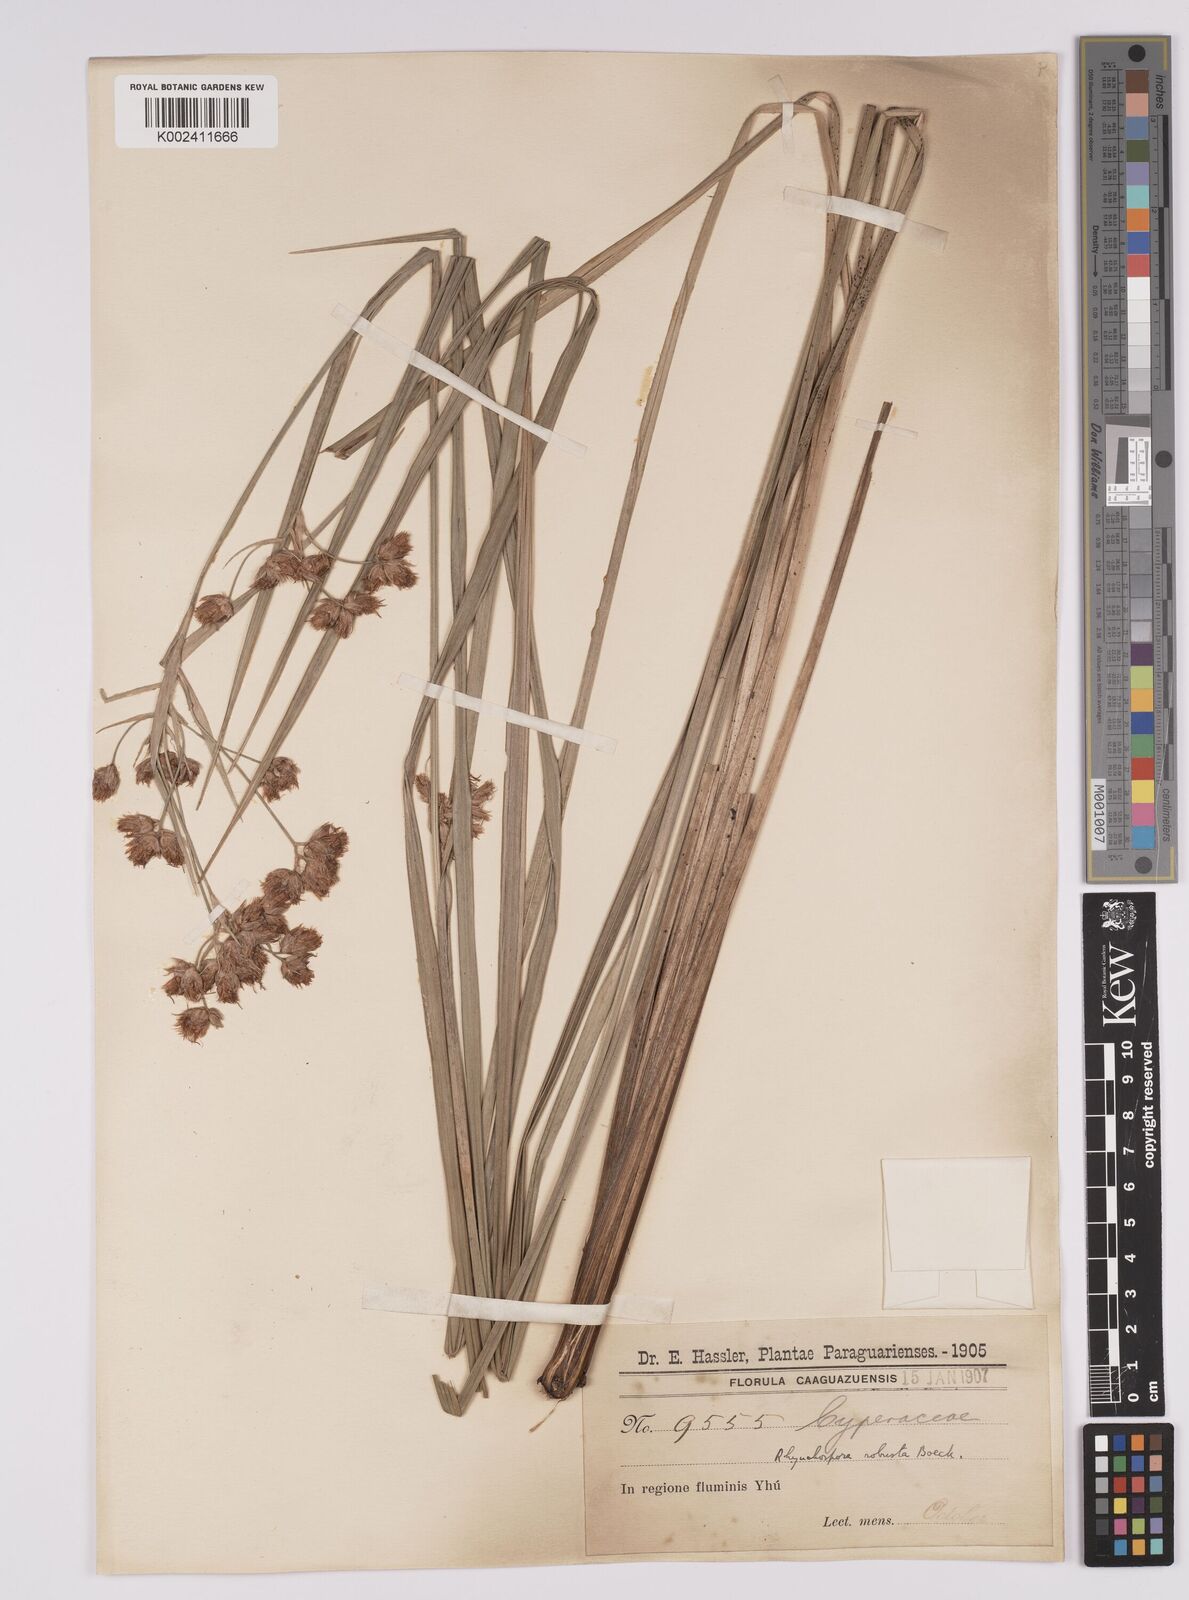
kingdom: Plantae
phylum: Tracheophyta
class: Liliopsida
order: Poales
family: Cyperaceae
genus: Rhynchospora
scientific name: Rhynchospora robusta
